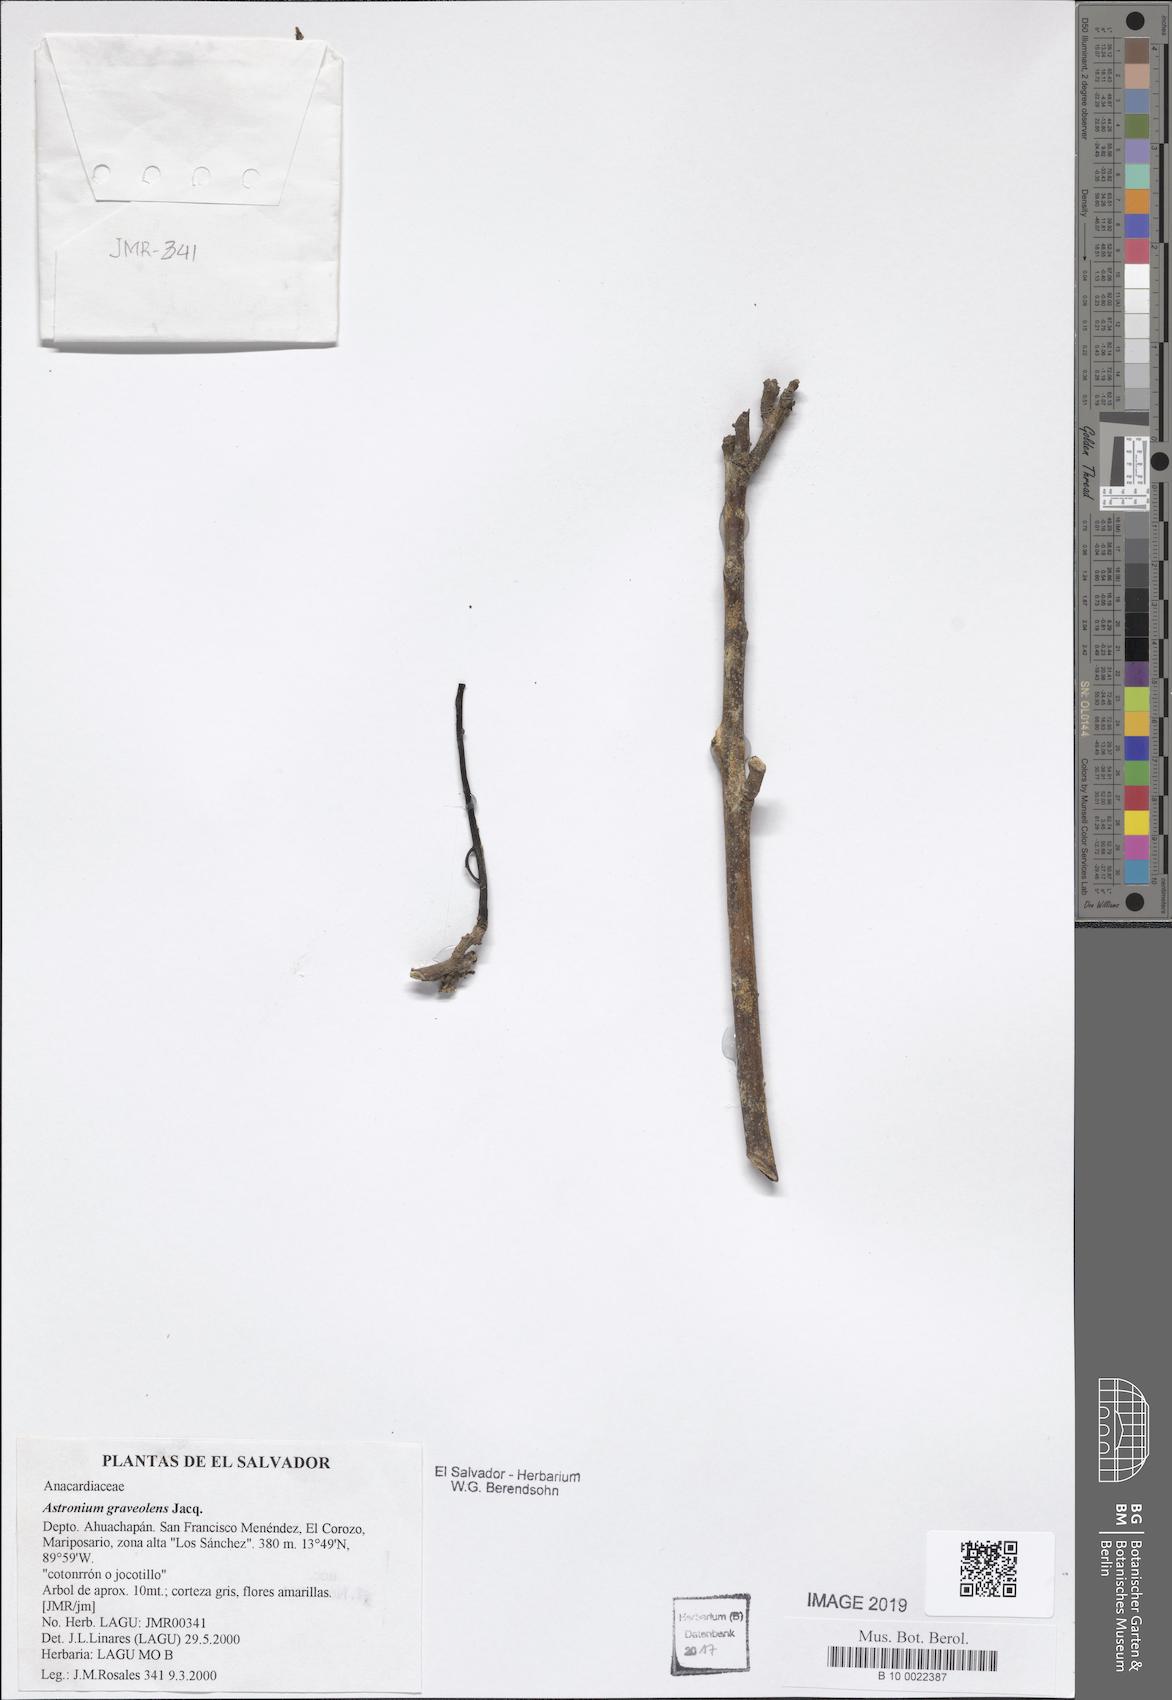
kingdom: Plantae
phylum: Tracheophyta
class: Magnoliopsida
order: Sapindales
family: Anacardiaceae
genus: Astronium
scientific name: Astronium graveolens
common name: Glassywood
